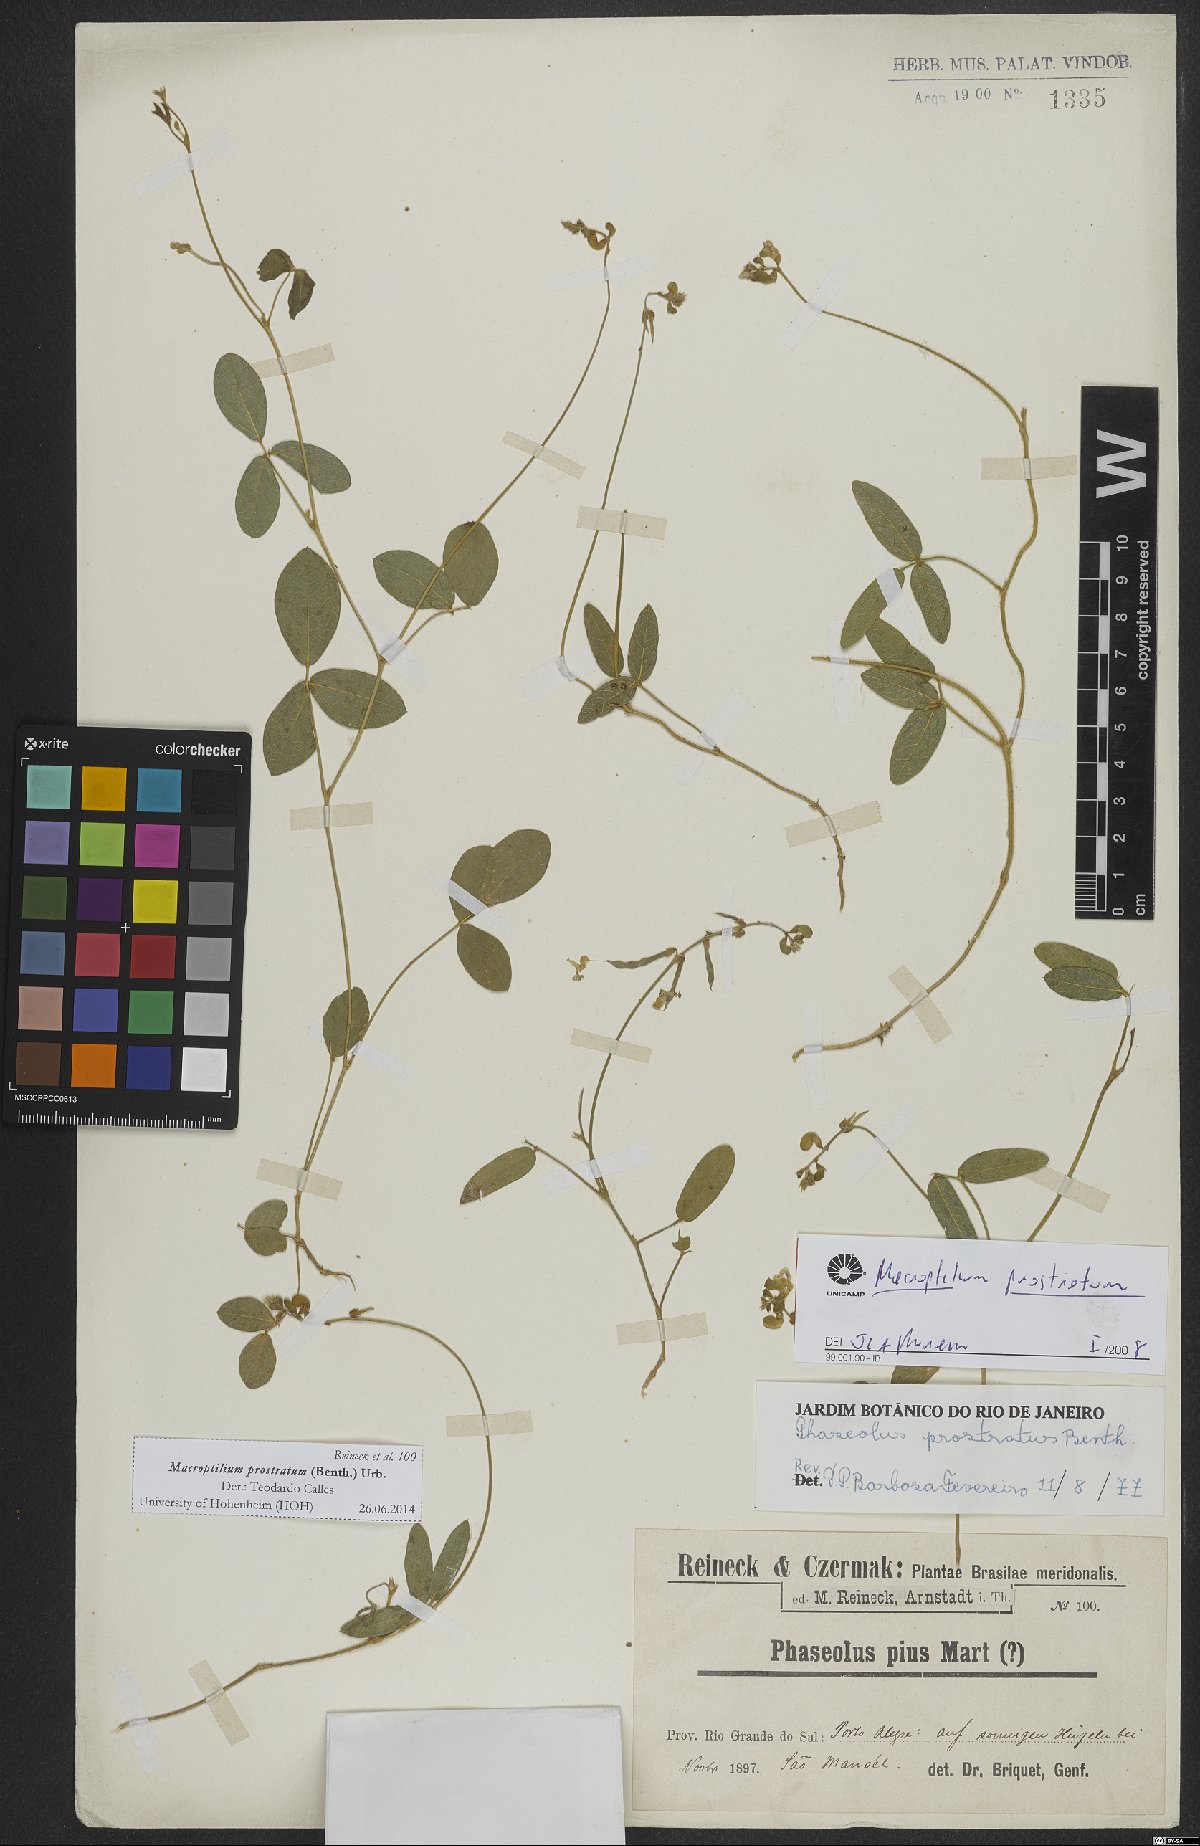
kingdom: Plantae
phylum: Tracheophyta
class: Magnoliopsida
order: Fabales
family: Fabaceae
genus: Macroptilium
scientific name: Macroptilium prostratum
